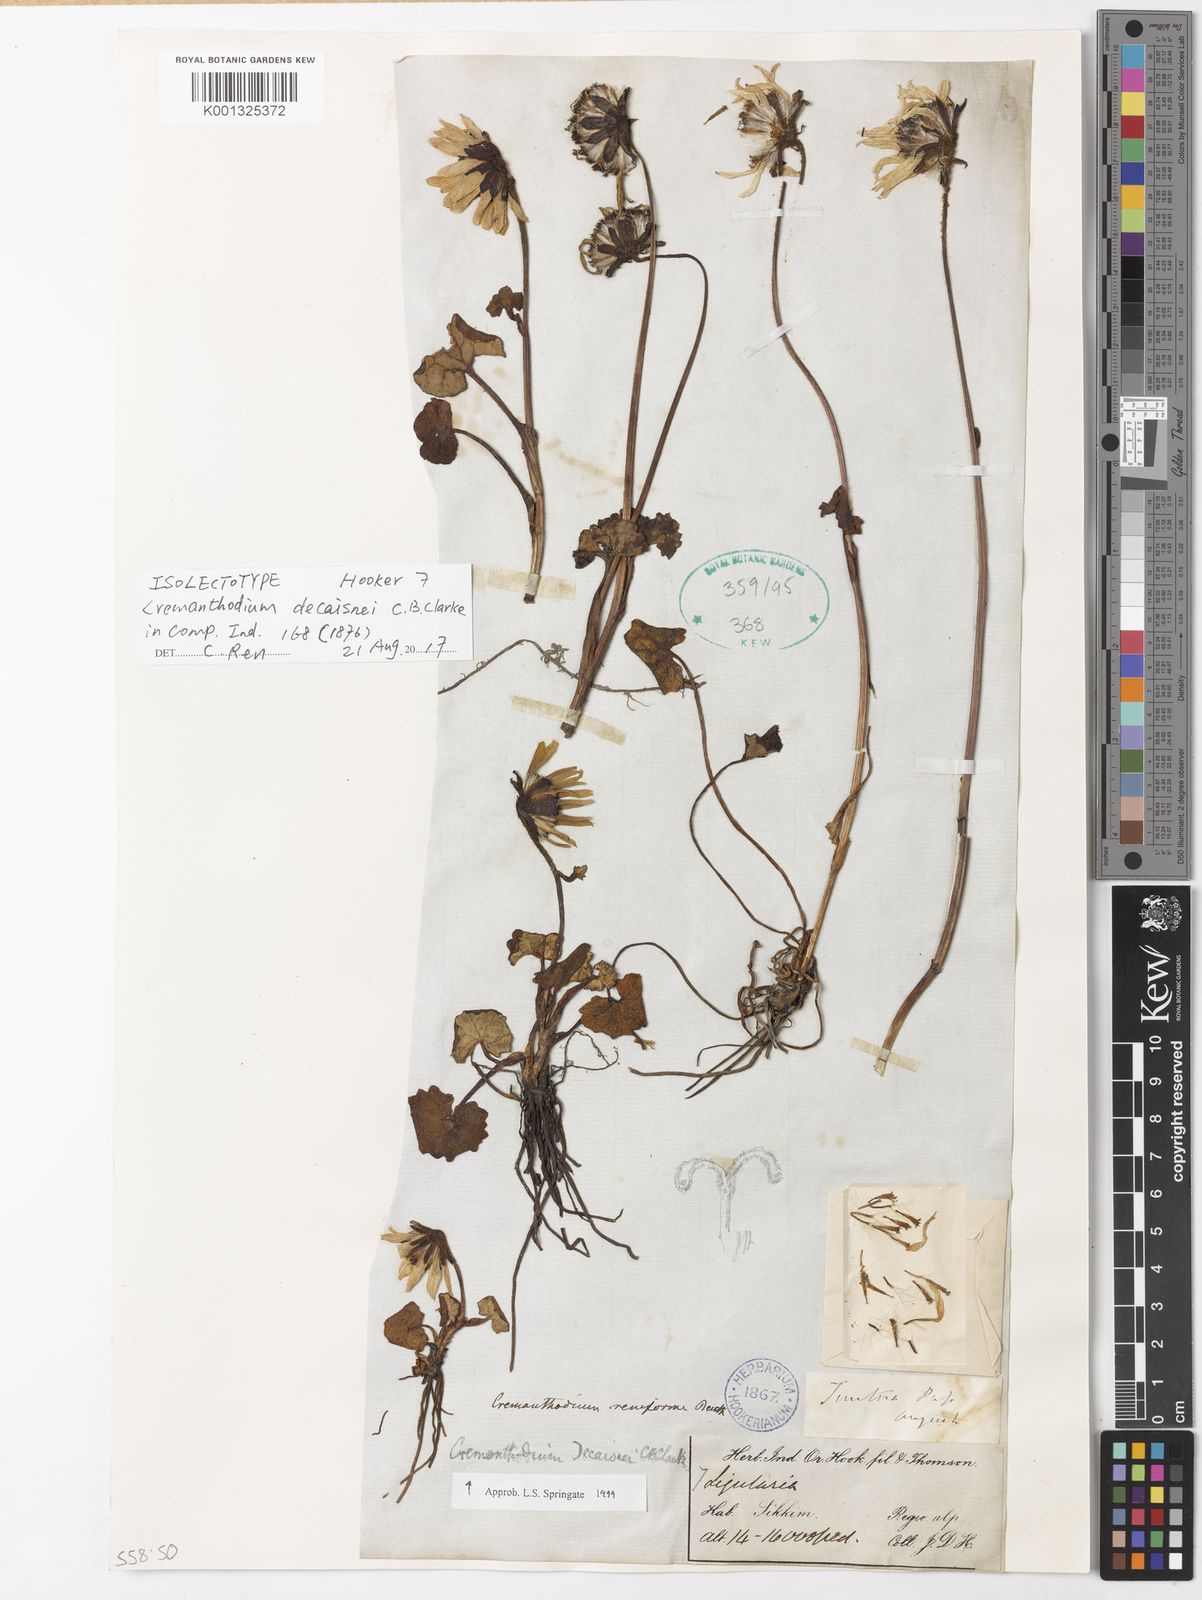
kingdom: Plantae
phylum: Tracheophyta
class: Magnoliopsida
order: Asterales
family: Asteraceae
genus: Cremanthodium
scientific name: Cremanthodium decaisnei
